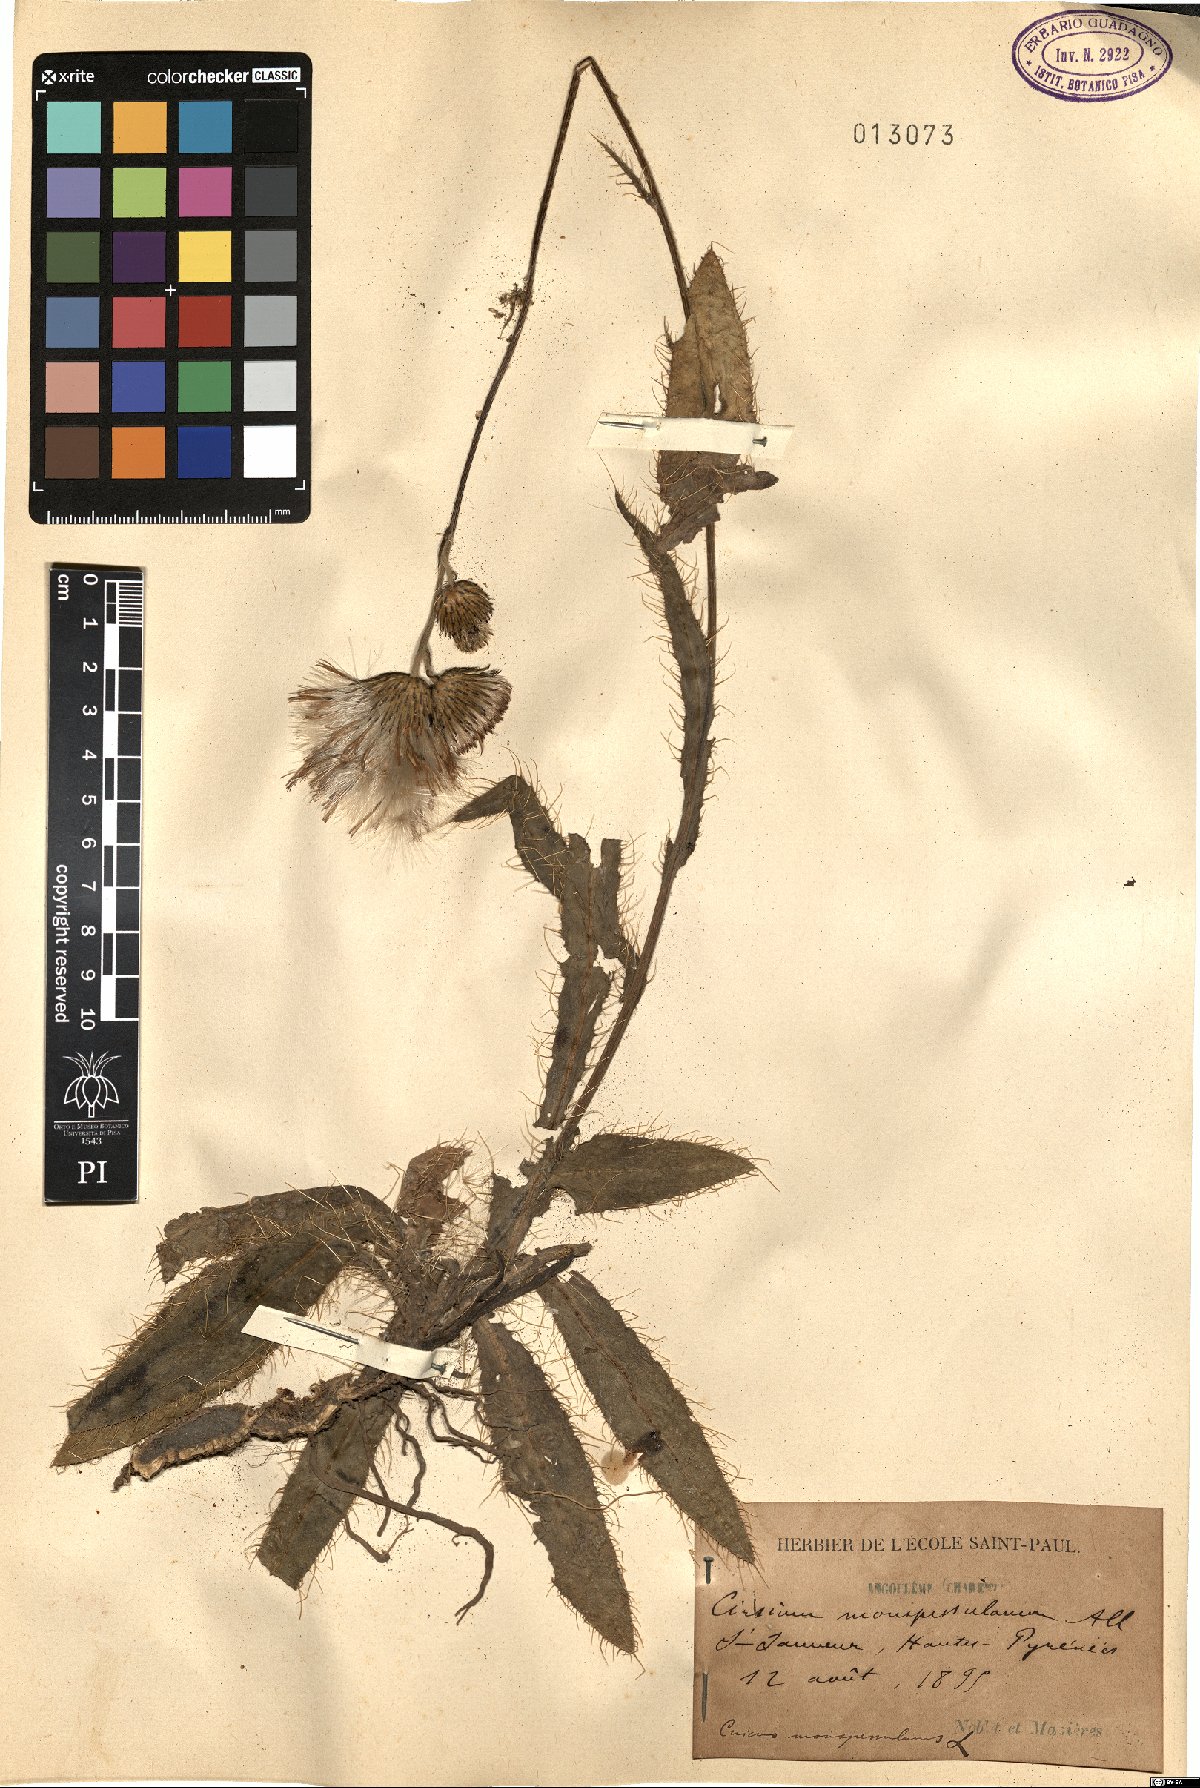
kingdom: Plantae
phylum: Tracheophyta
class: Magnoliopsida
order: Asterales
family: Asteraceae
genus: Cirsium
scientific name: Cirsium monspessulanum
